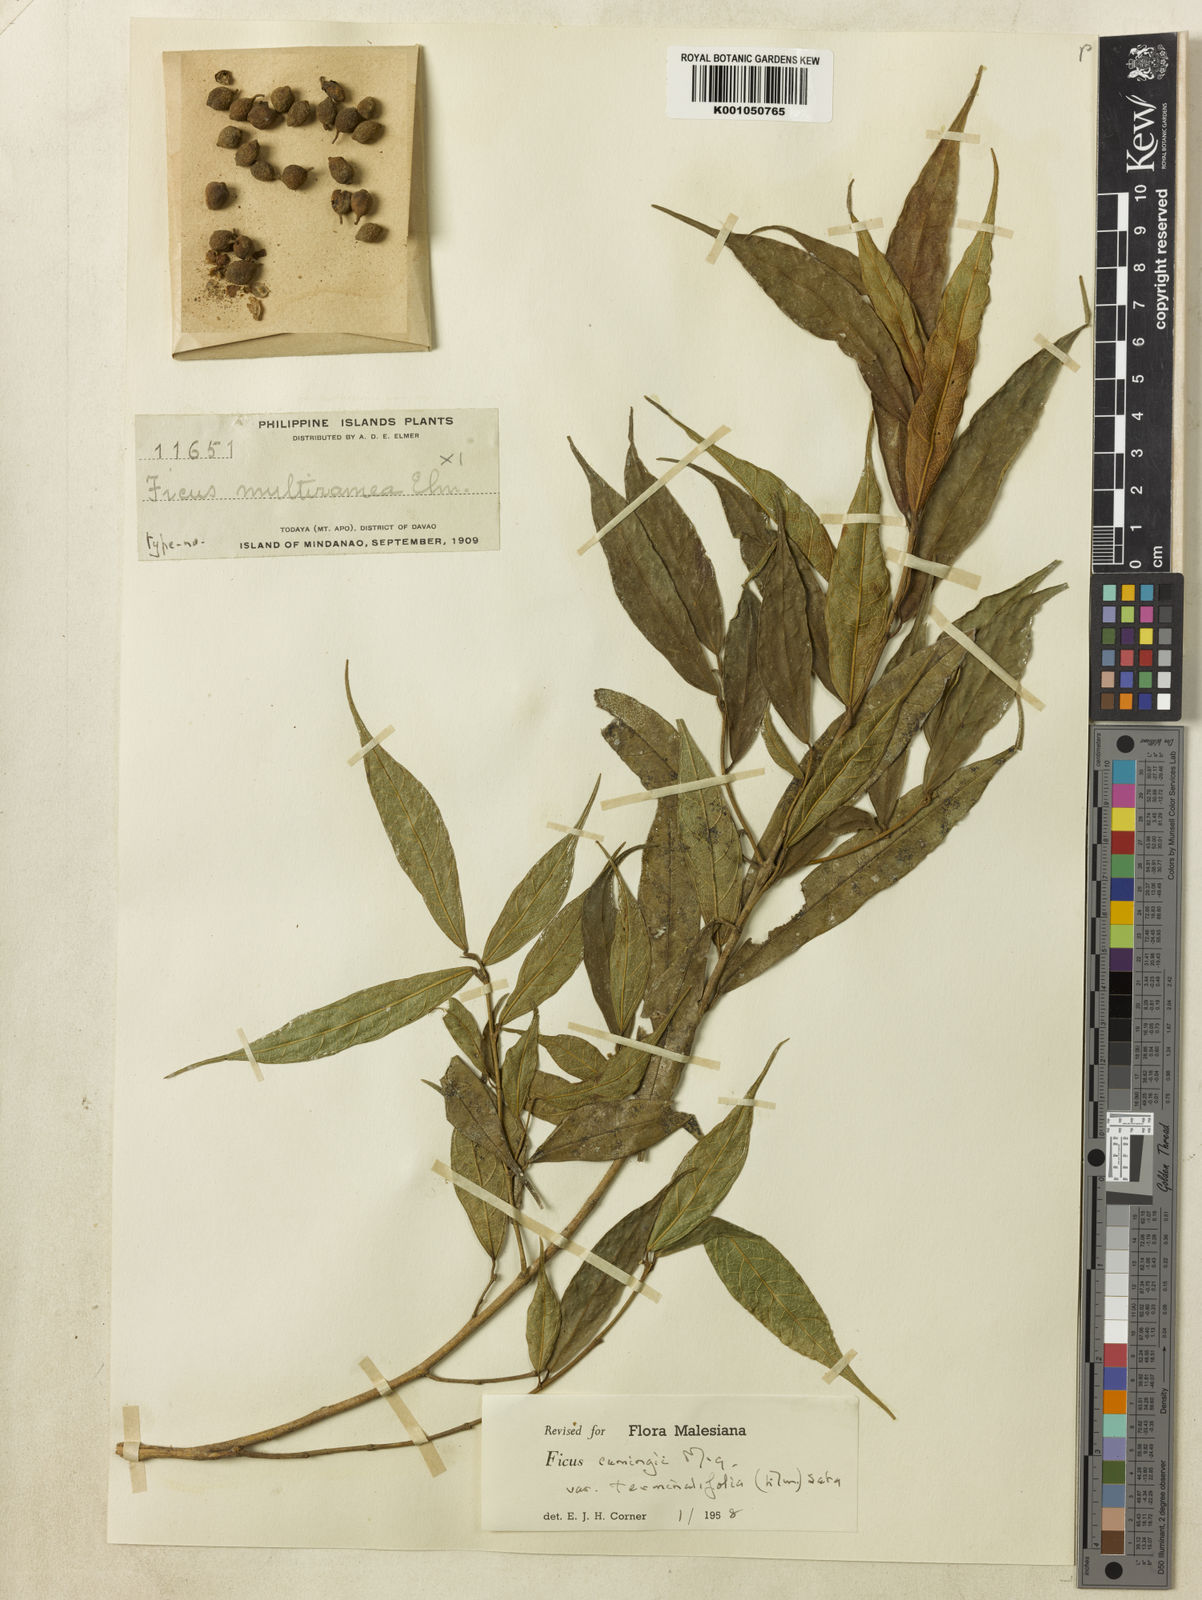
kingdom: Plantae
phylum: Tracheophyta
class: Magnoliopsida
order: Rosales
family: Moraceae
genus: Ficus
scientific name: Ficus cumingii
